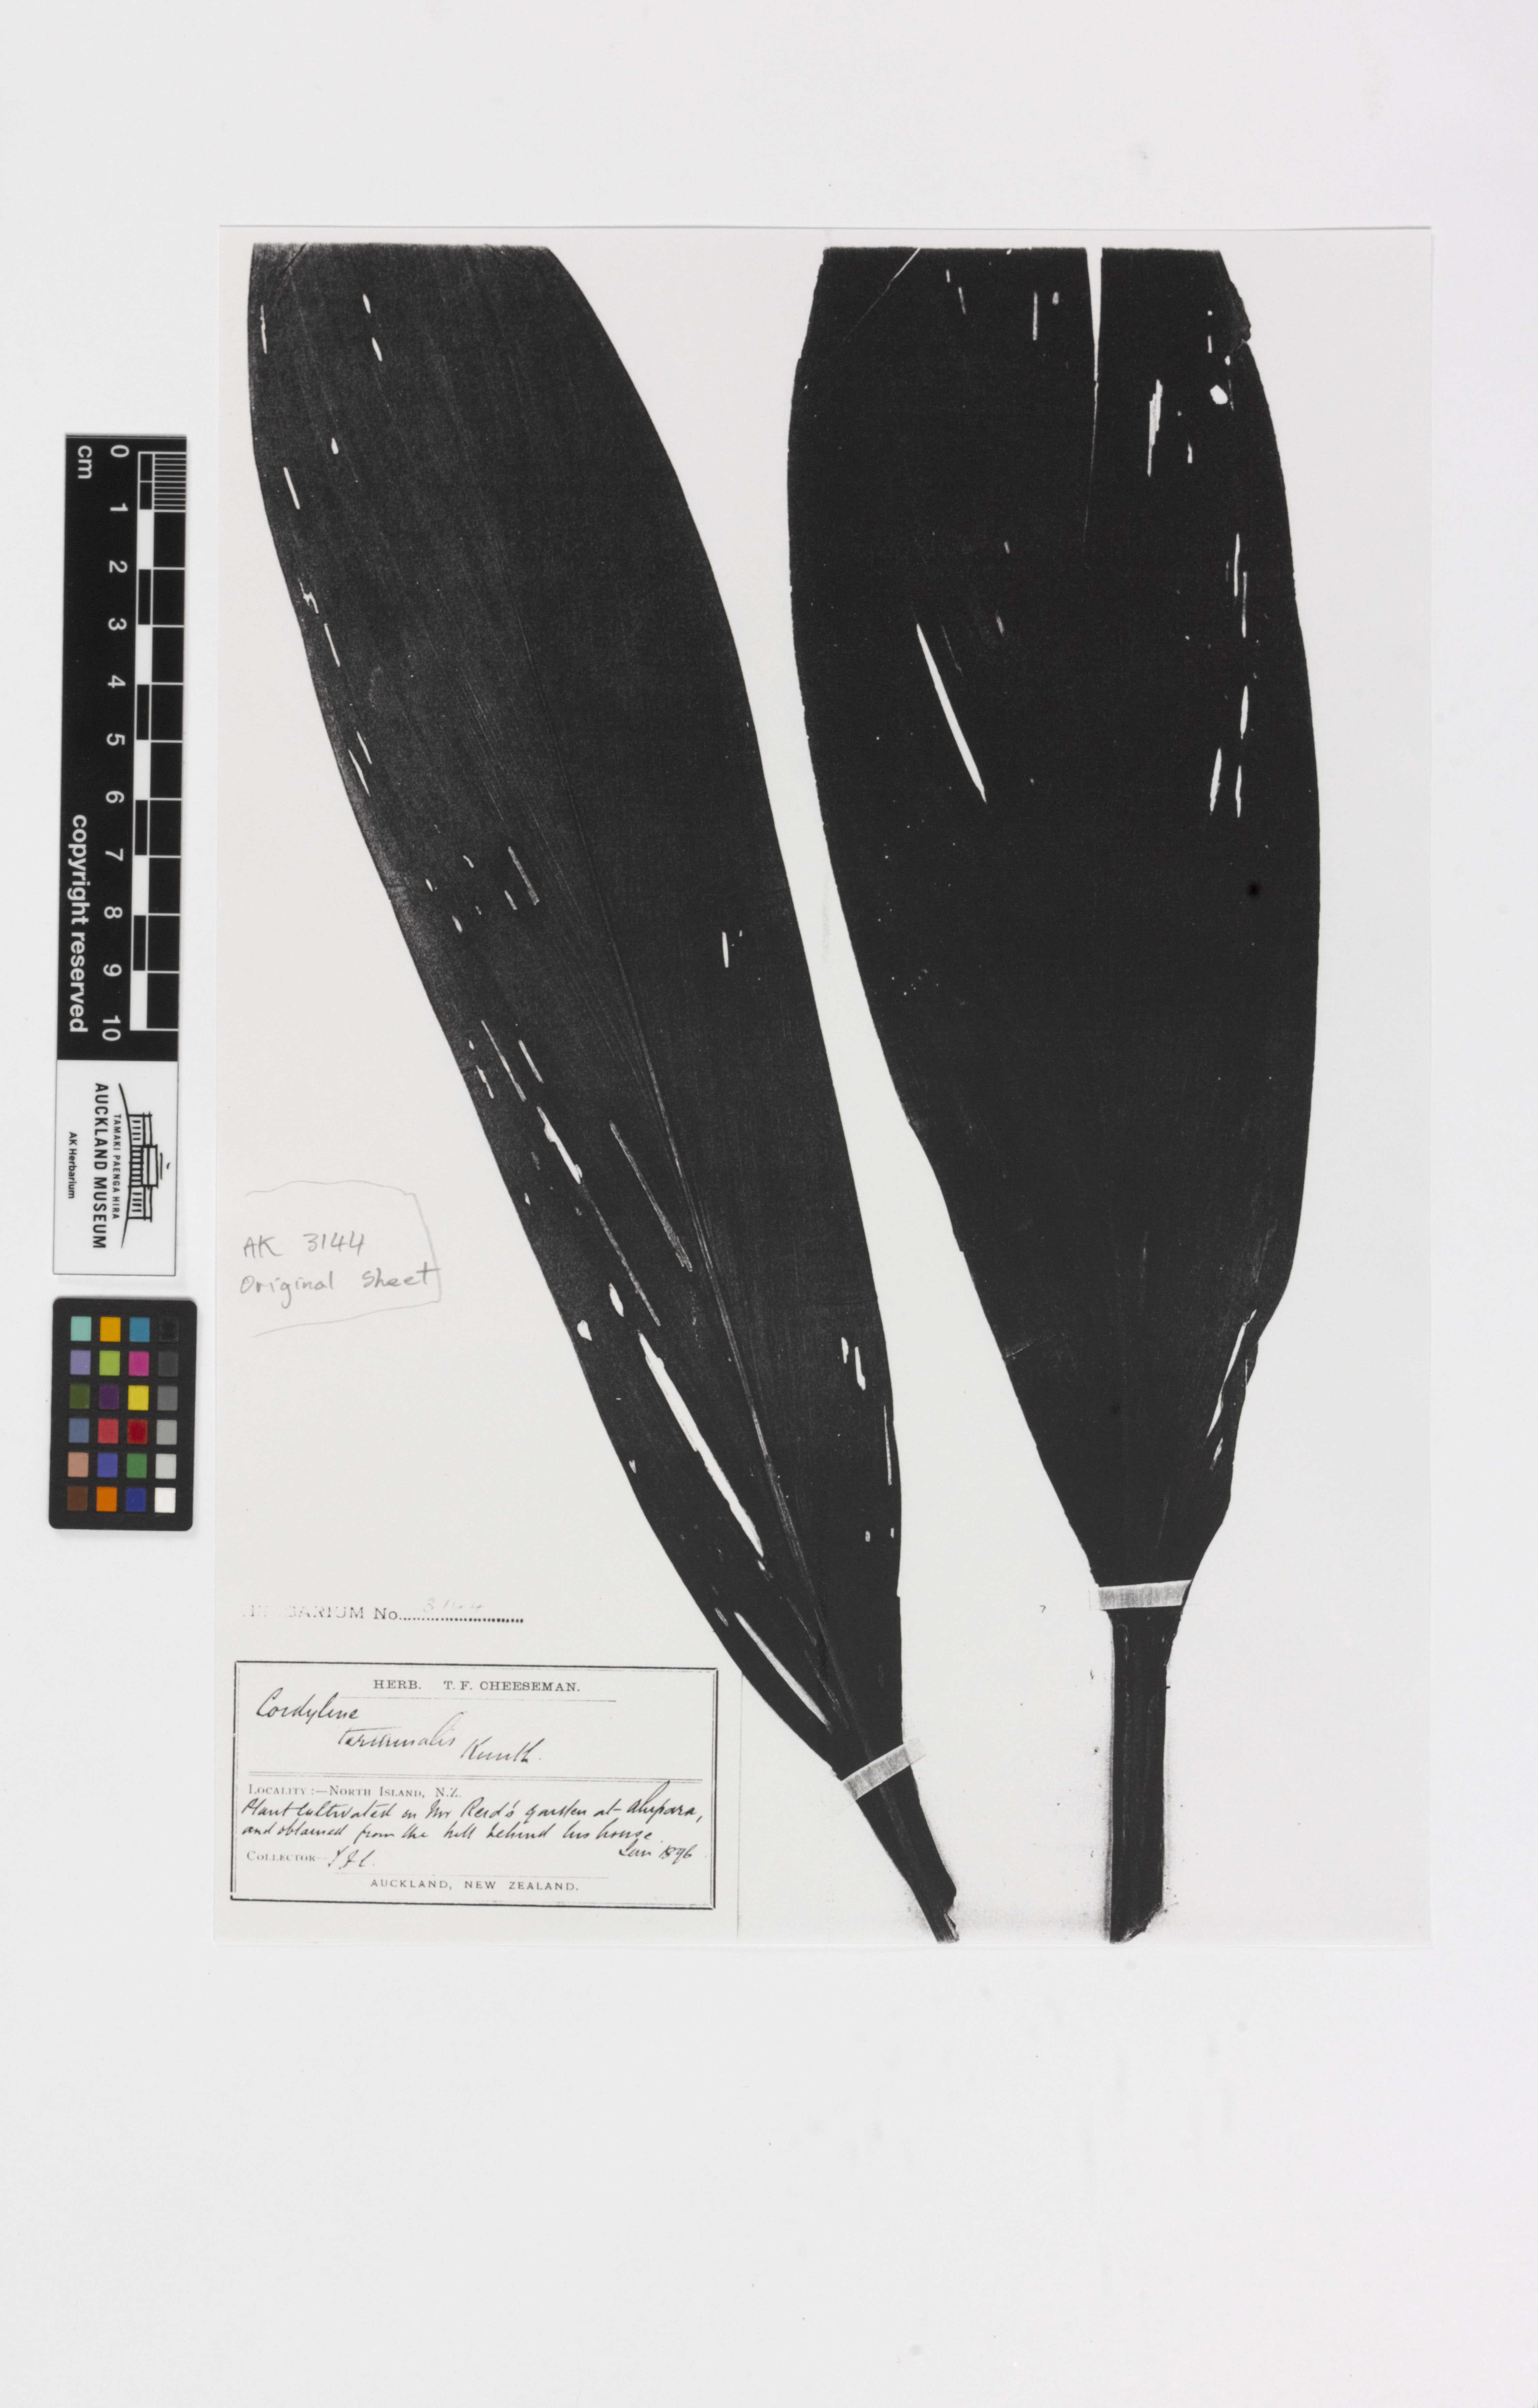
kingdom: Plantae
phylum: Tracheophyta
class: Liliopsida
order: Asparagales
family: Asparagaceae
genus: Cordyline
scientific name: Cordyline fruticosa
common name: Good-luck-plant
